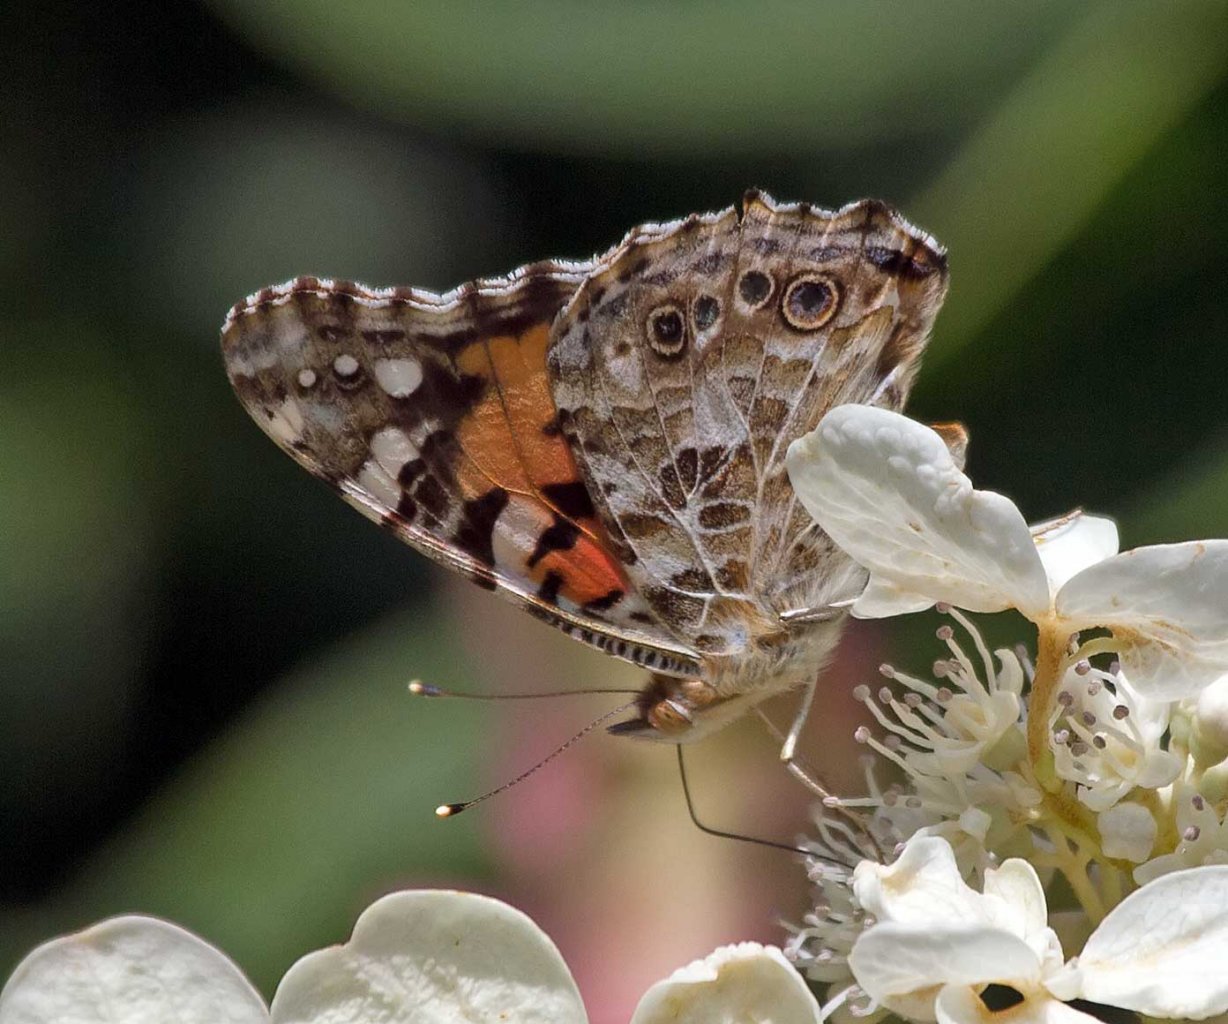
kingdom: Animalia
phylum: Arthropoda
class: Insecta
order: Lepidoptera
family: Nymphalidae
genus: Vanessa
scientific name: Vanessa cardui
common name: Painted Lady
